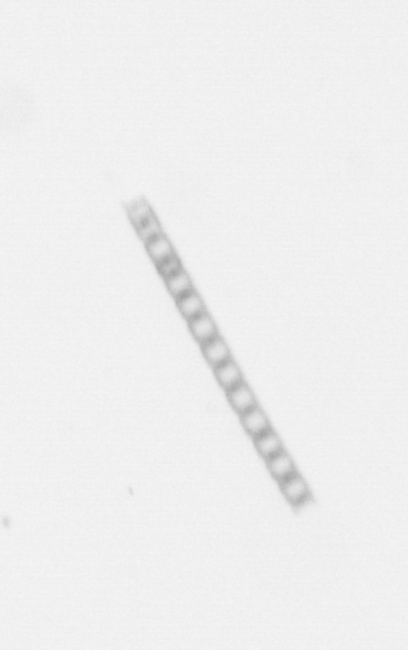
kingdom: Chromista
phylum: Ochrophyta
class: Bacillariophyceae
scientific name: Bacillariophyceae
